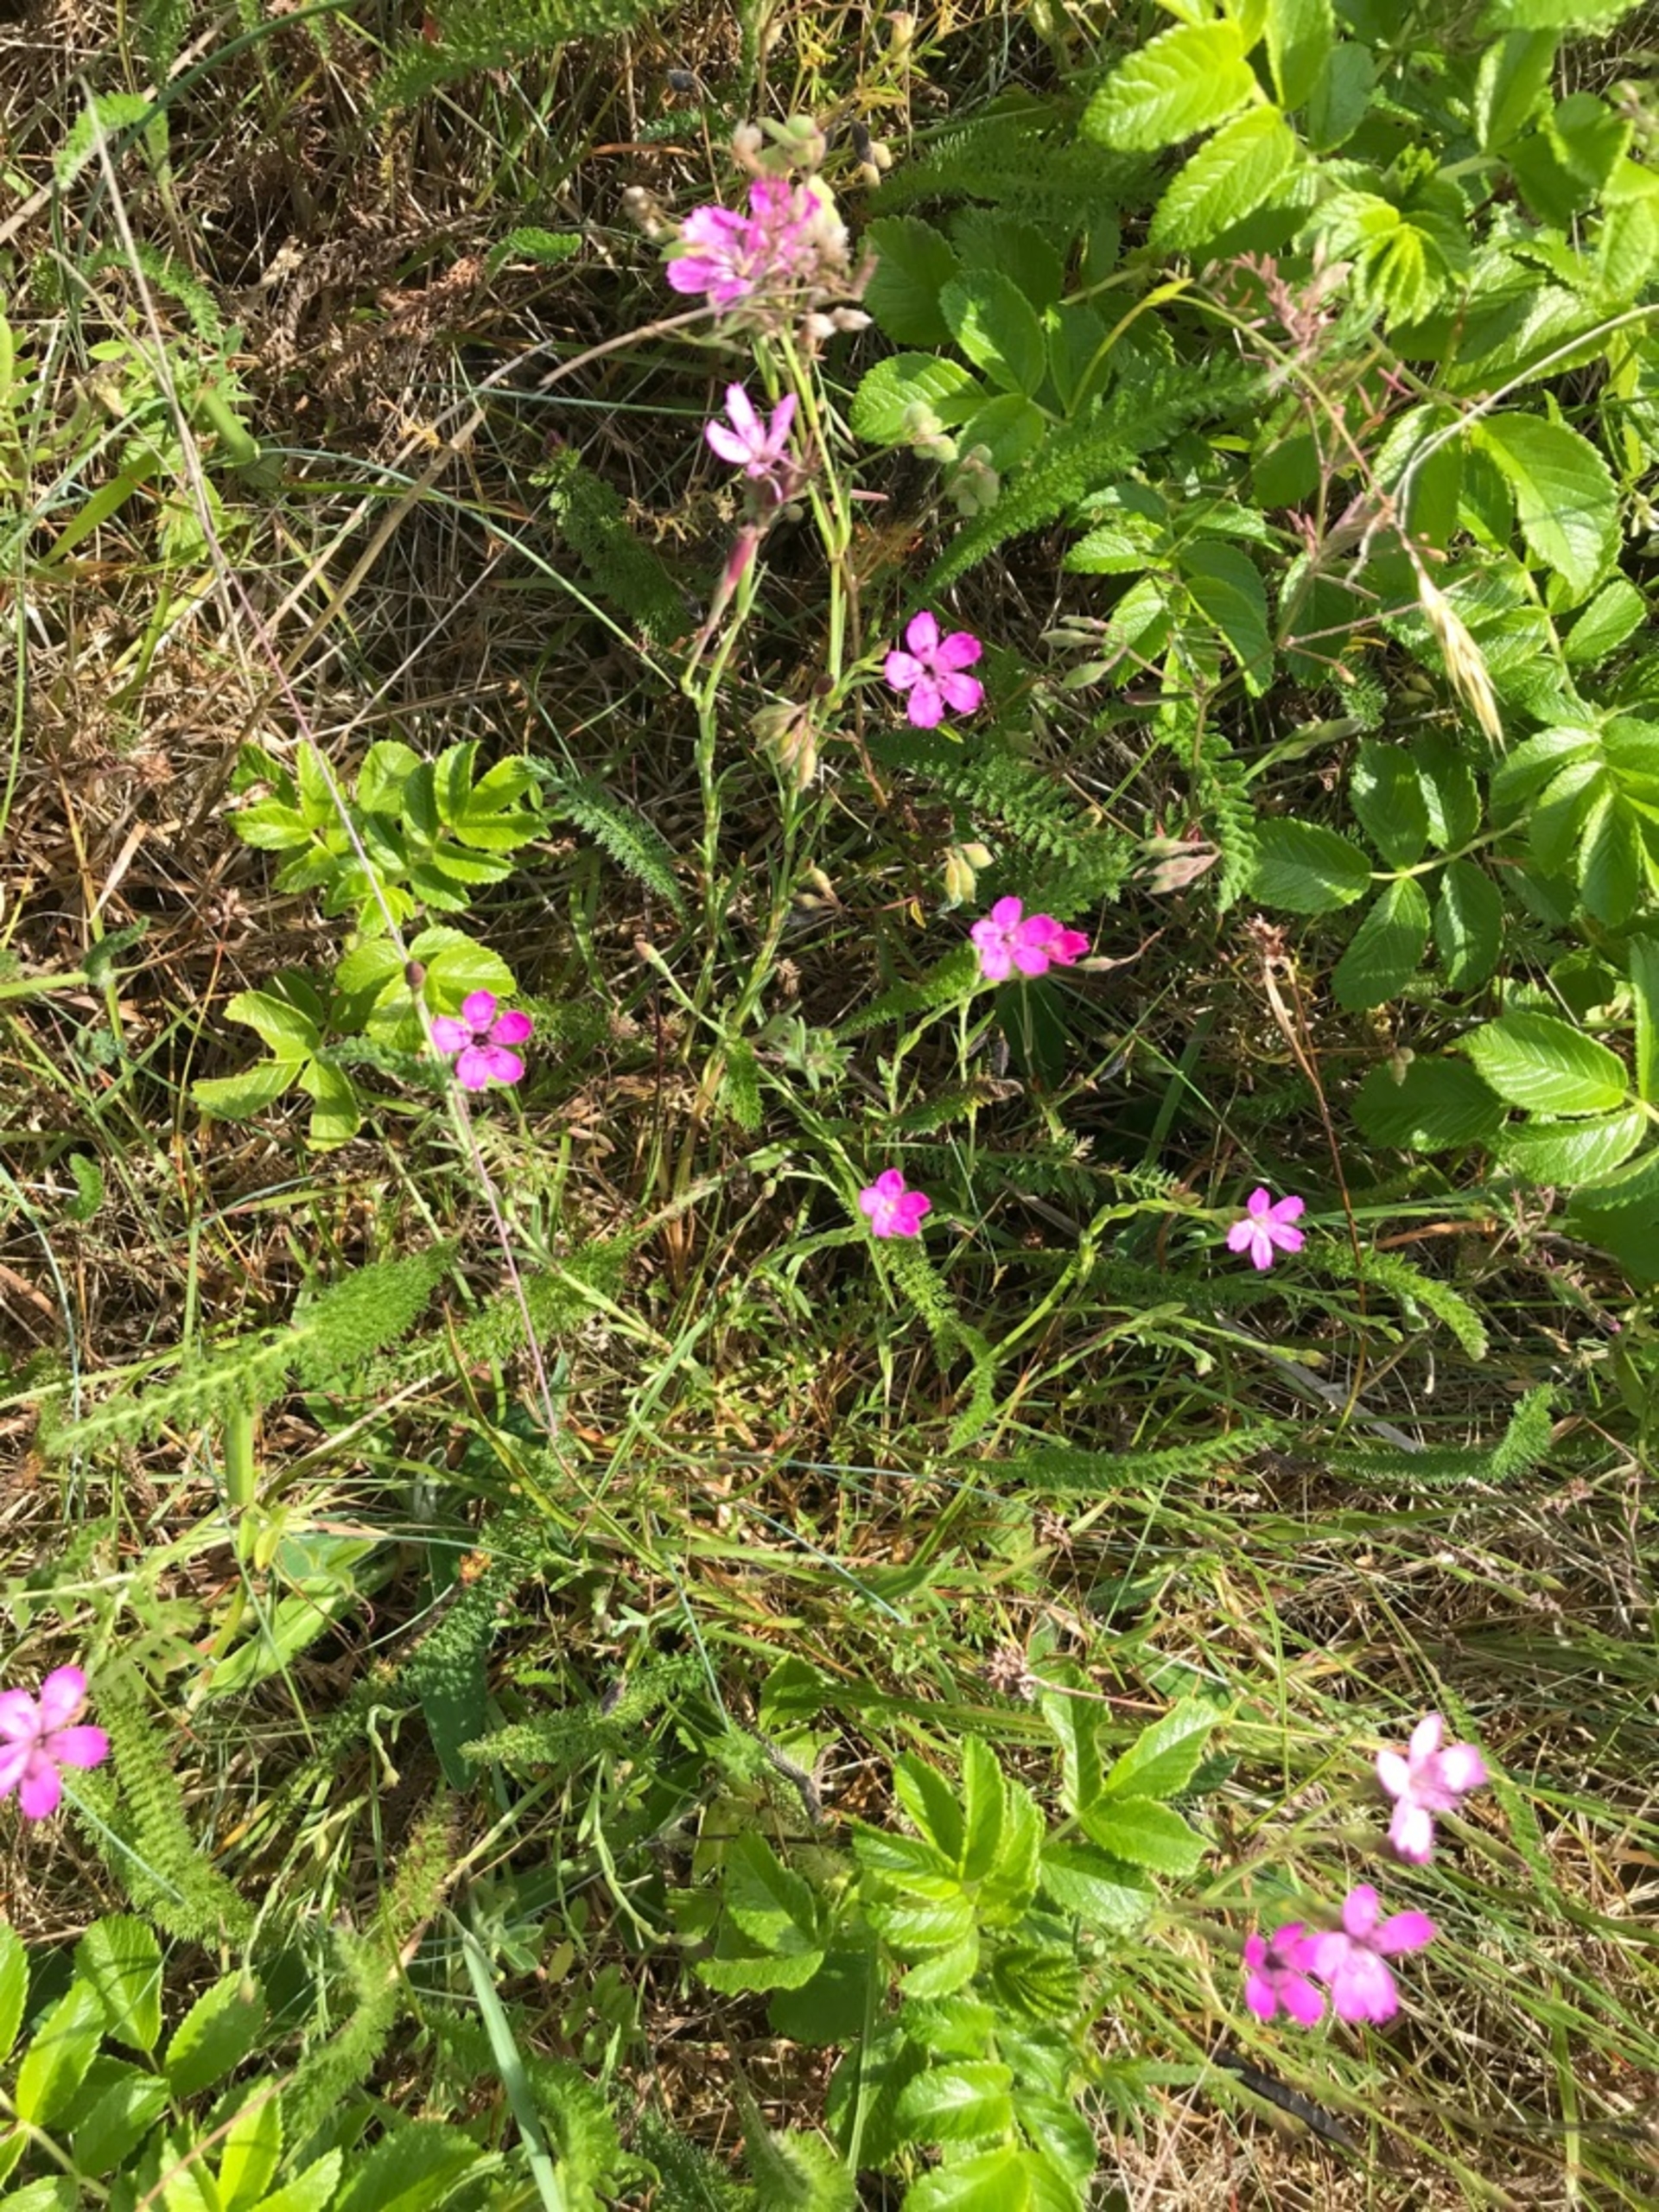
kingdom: Plantae
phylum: Tracheophyta
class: Magnoliopsida
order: Caryophyllales
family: Caryophyllaceae
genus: Dianthus
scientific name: Dianthus deltoides
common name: Bakke-nellike
